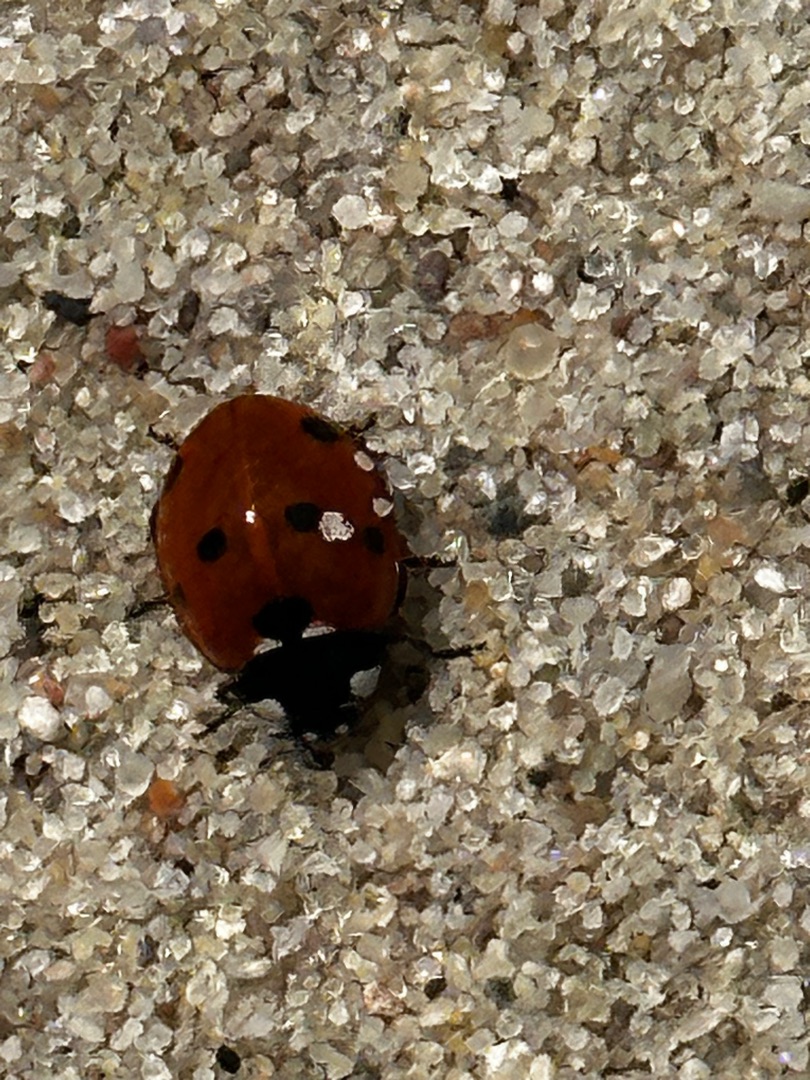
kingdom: Animalia
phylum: Arthropoda
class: Insecta
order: Coleoptera
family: Coccinellidae
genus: Coccinella
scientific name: Coccinella septempunctata
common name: Syvplettet mariehøne
